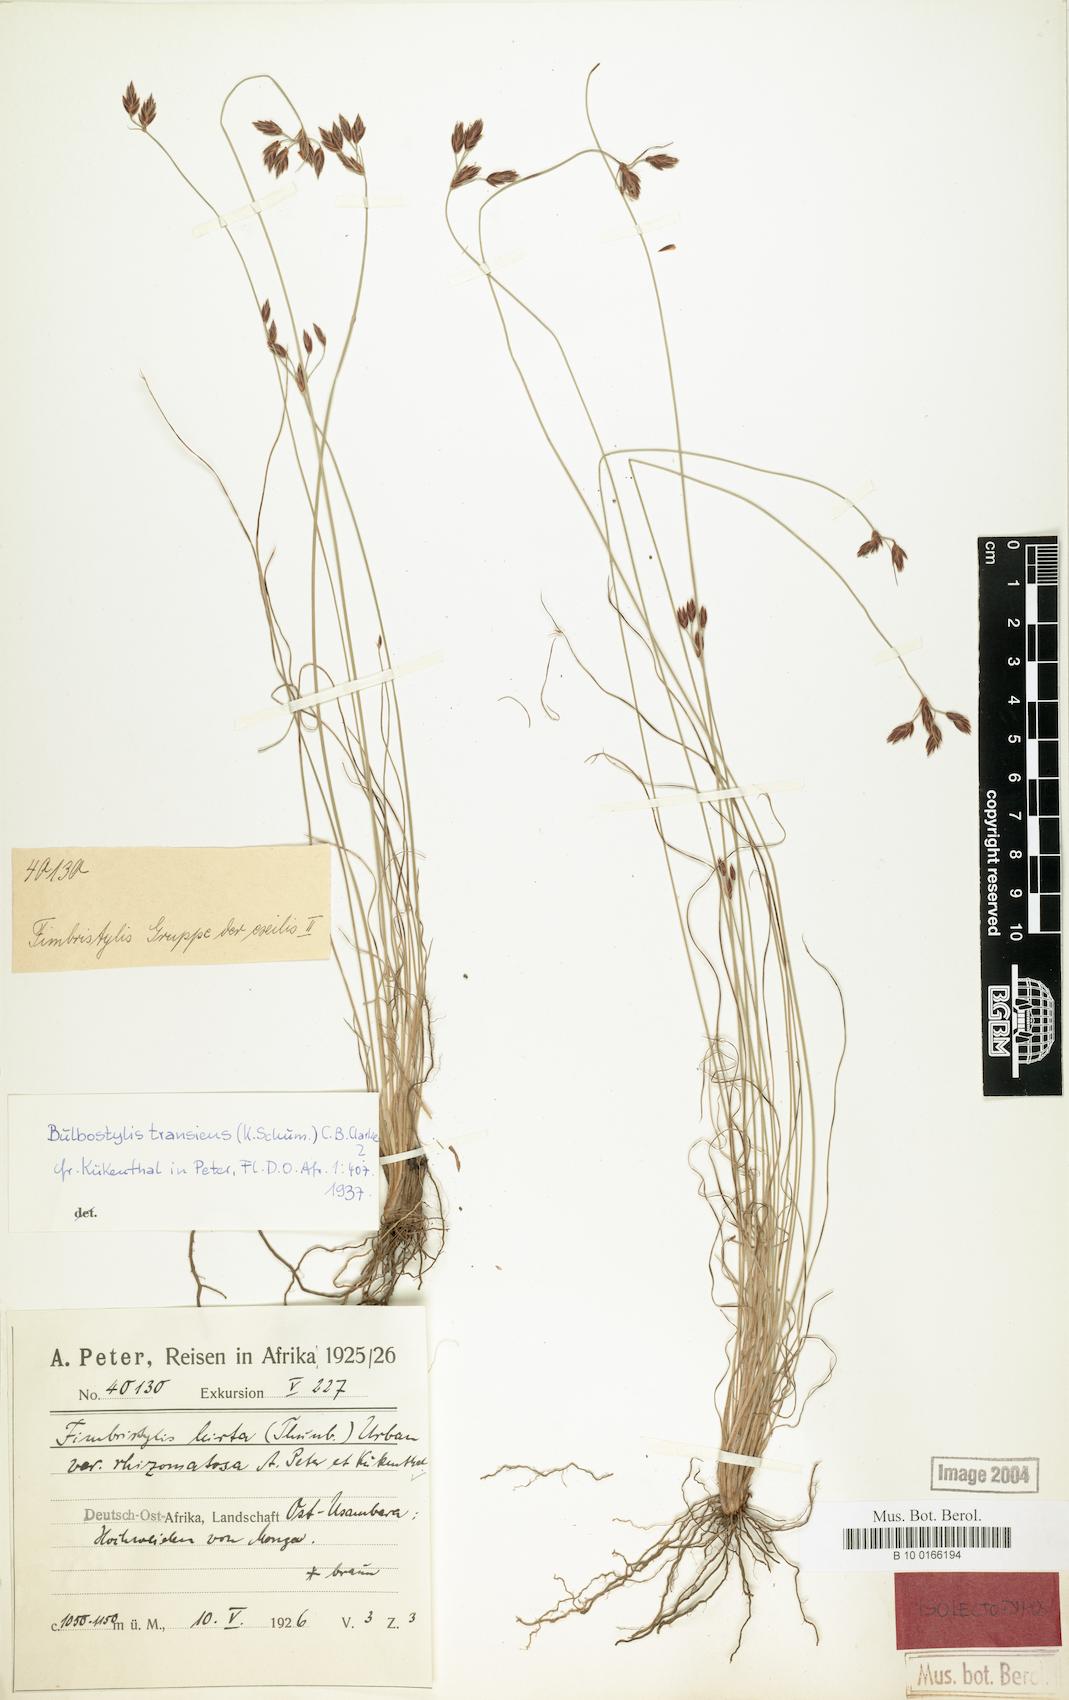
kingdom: Plantae
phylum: Tracheophyta
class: Liliopsida
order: Poales
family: Cyperaceae
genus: Bulbostylis
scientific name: Bulbostylis boeckeleriana
